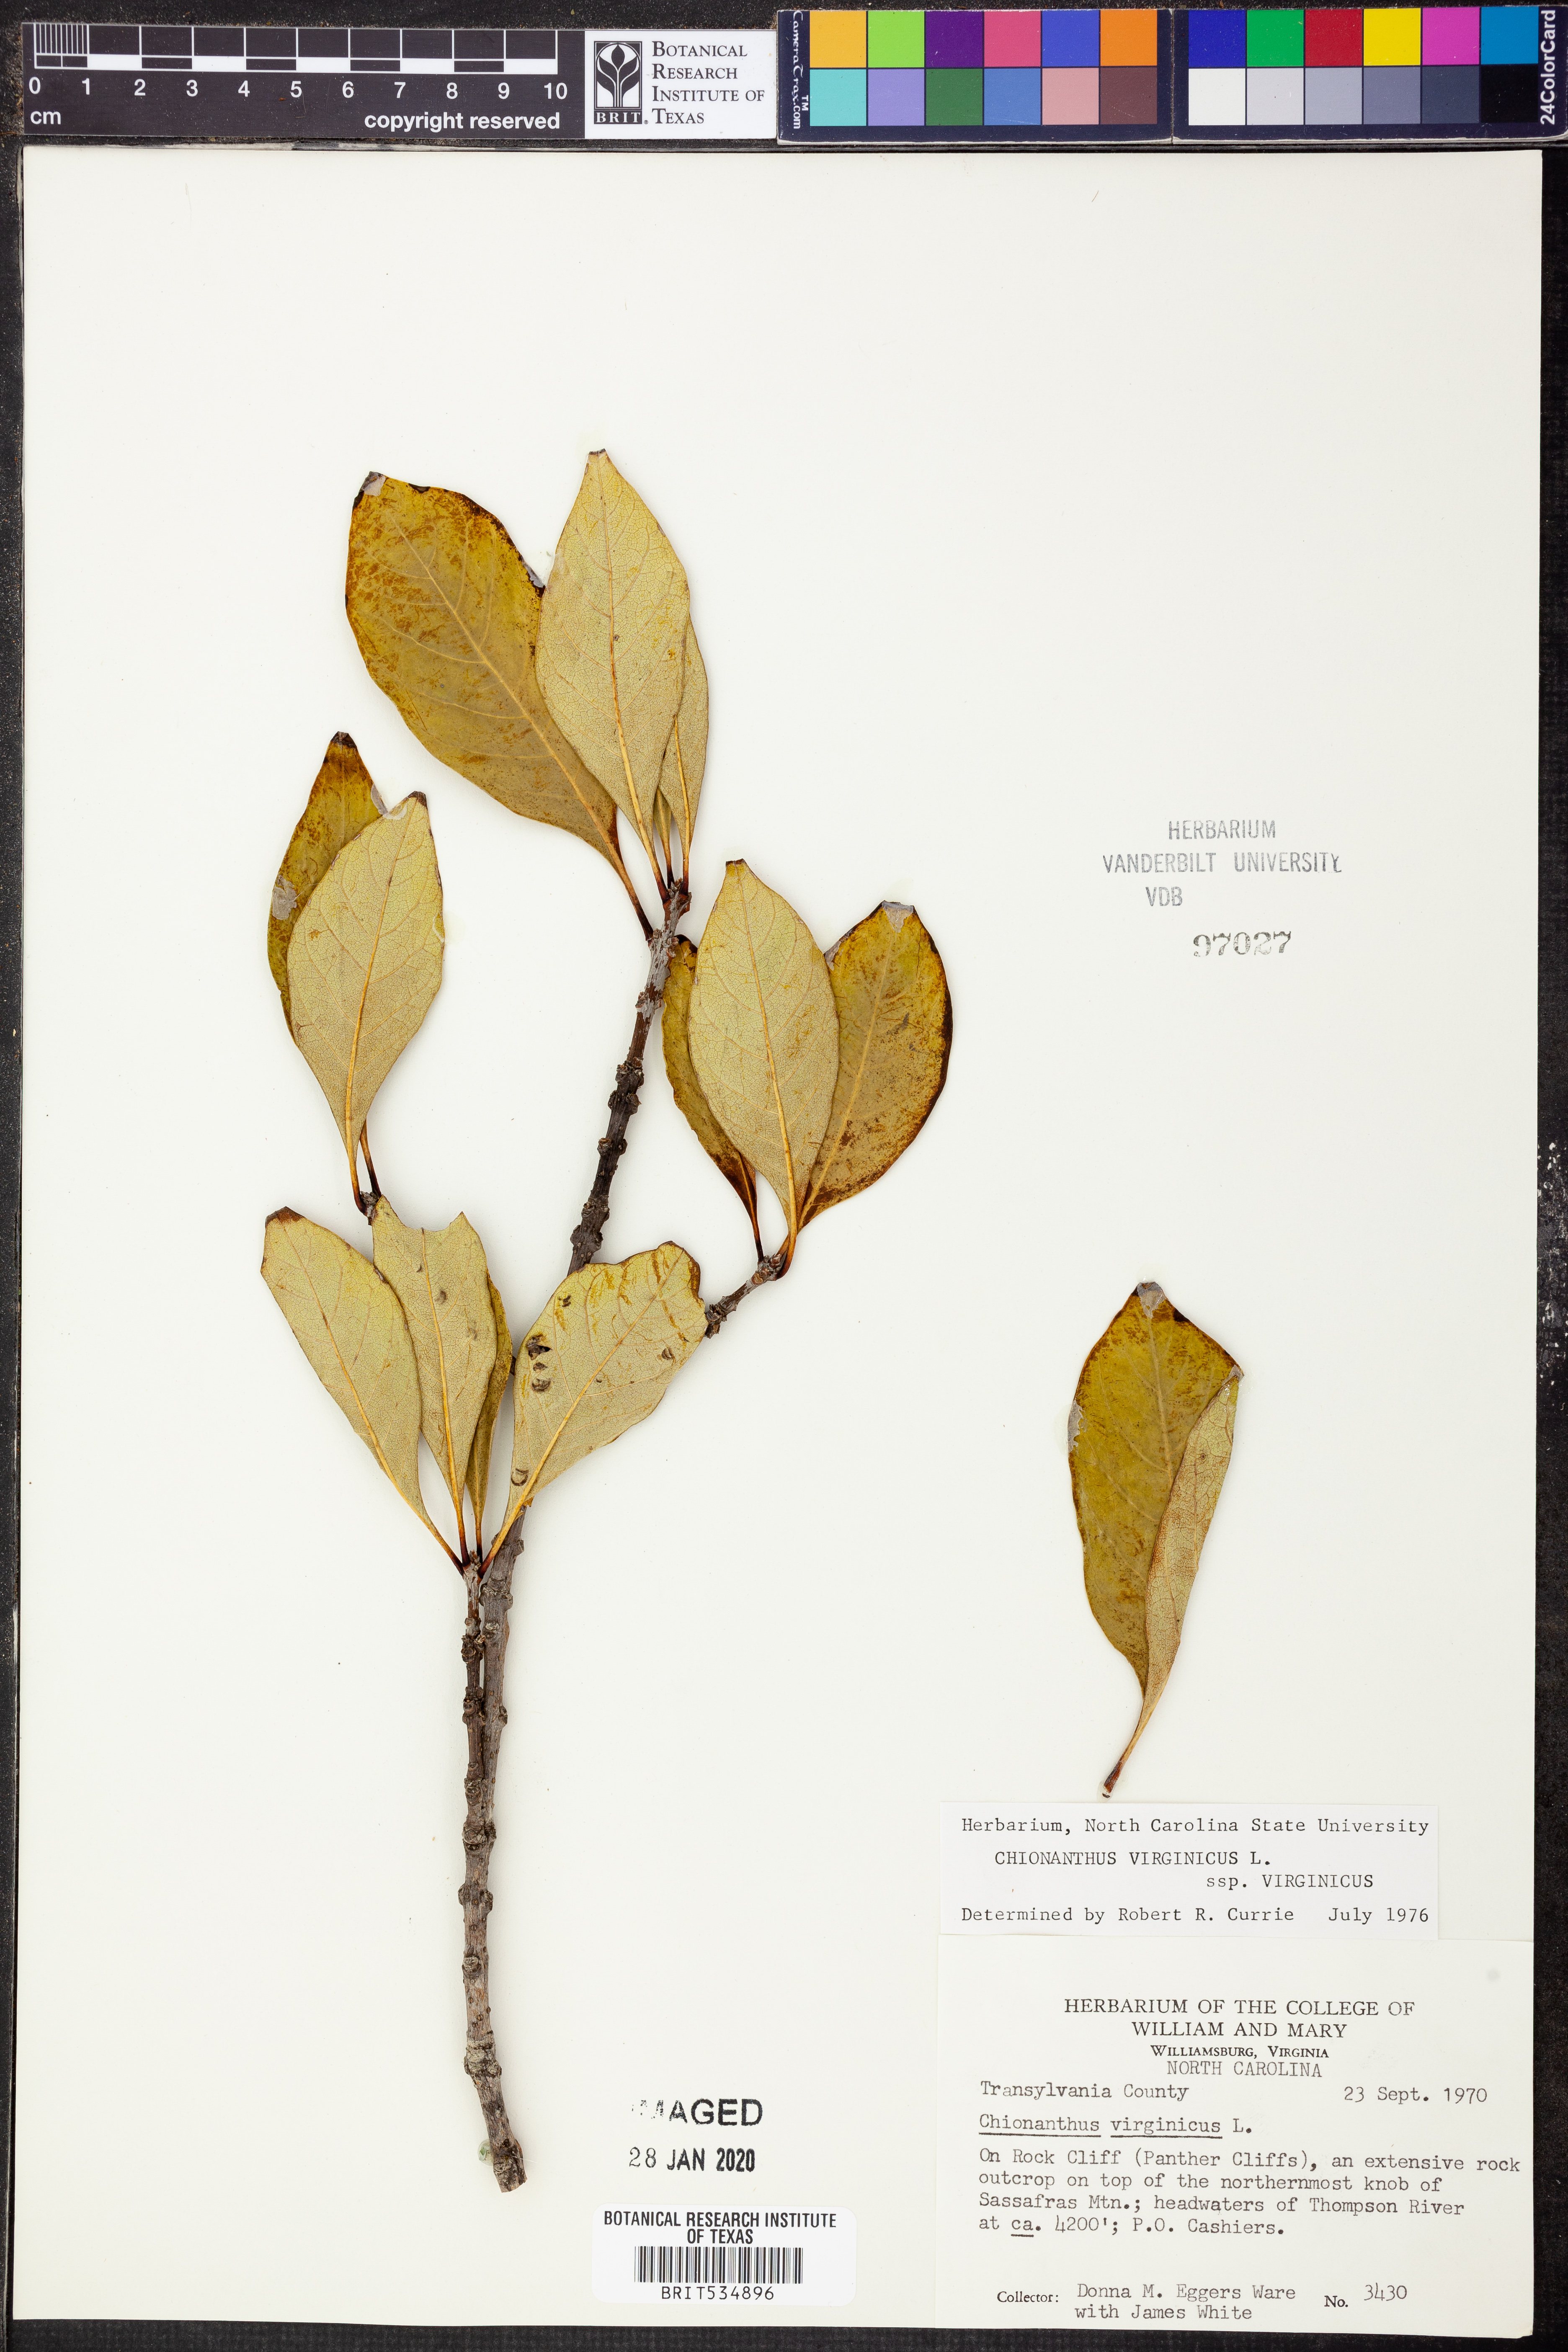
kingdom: Plantae
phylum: Tracheophyta
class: Magnoliopsida
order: Lamiales
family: Oleaceae
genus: Chionanthus
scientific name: Chionanthus virginicus
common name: American fringetree
